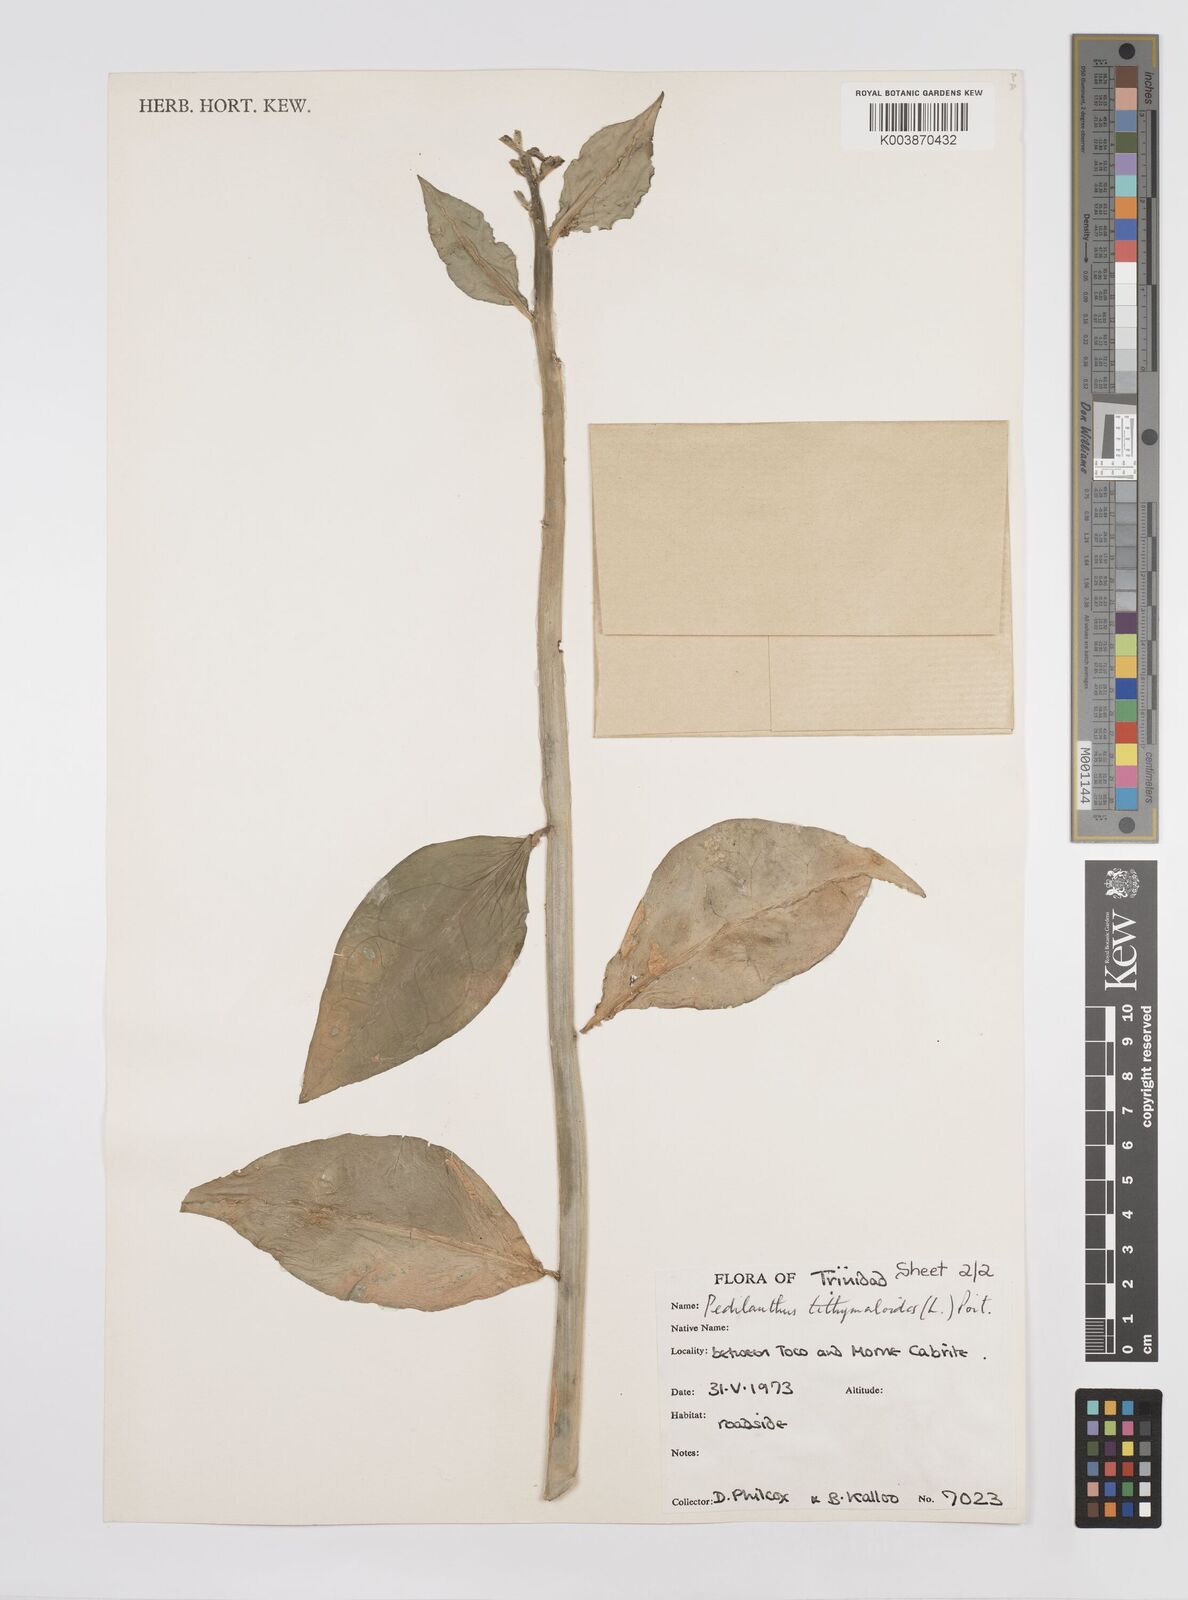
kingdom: Plantae
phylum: Tracheophyta
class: Magnoliopsida
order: Malpighiales
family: Euphorbiaceae
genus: Euphorbia
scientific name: Euphorbia tithymaloides
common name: Slipperplant
